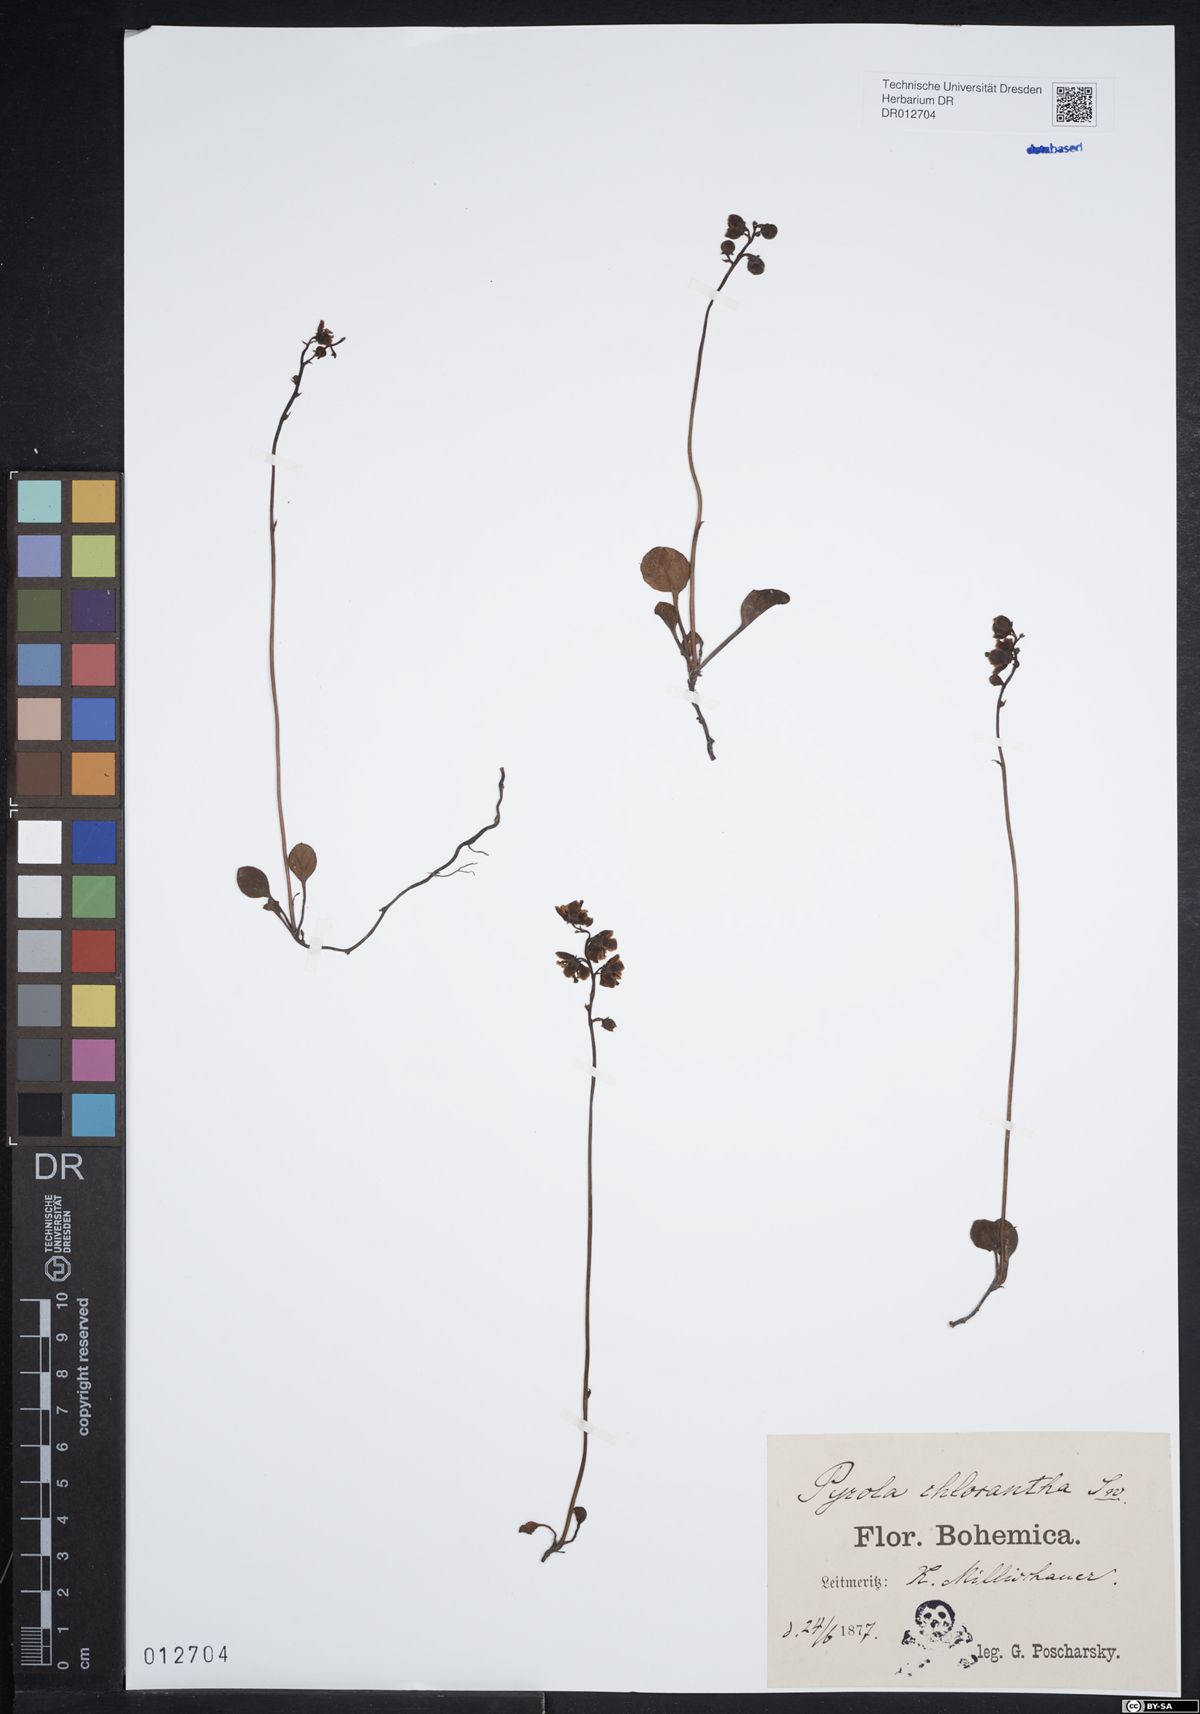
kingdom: Plantae
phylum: Tracheophyta
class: Magnoliopsida
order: Ericales
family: Ericaceae
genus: Pyrola
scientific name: Pyrola chlorantha
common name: Green wintergreen
